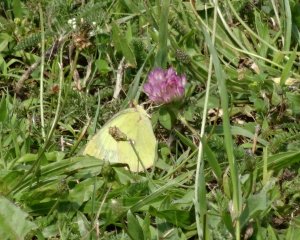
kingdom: Animalia
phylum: Arthropoda
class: Insecta
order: Lepidoptera
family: Pieridae
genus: Colias
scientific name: Colias philodice
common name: Clouded Sulphur
